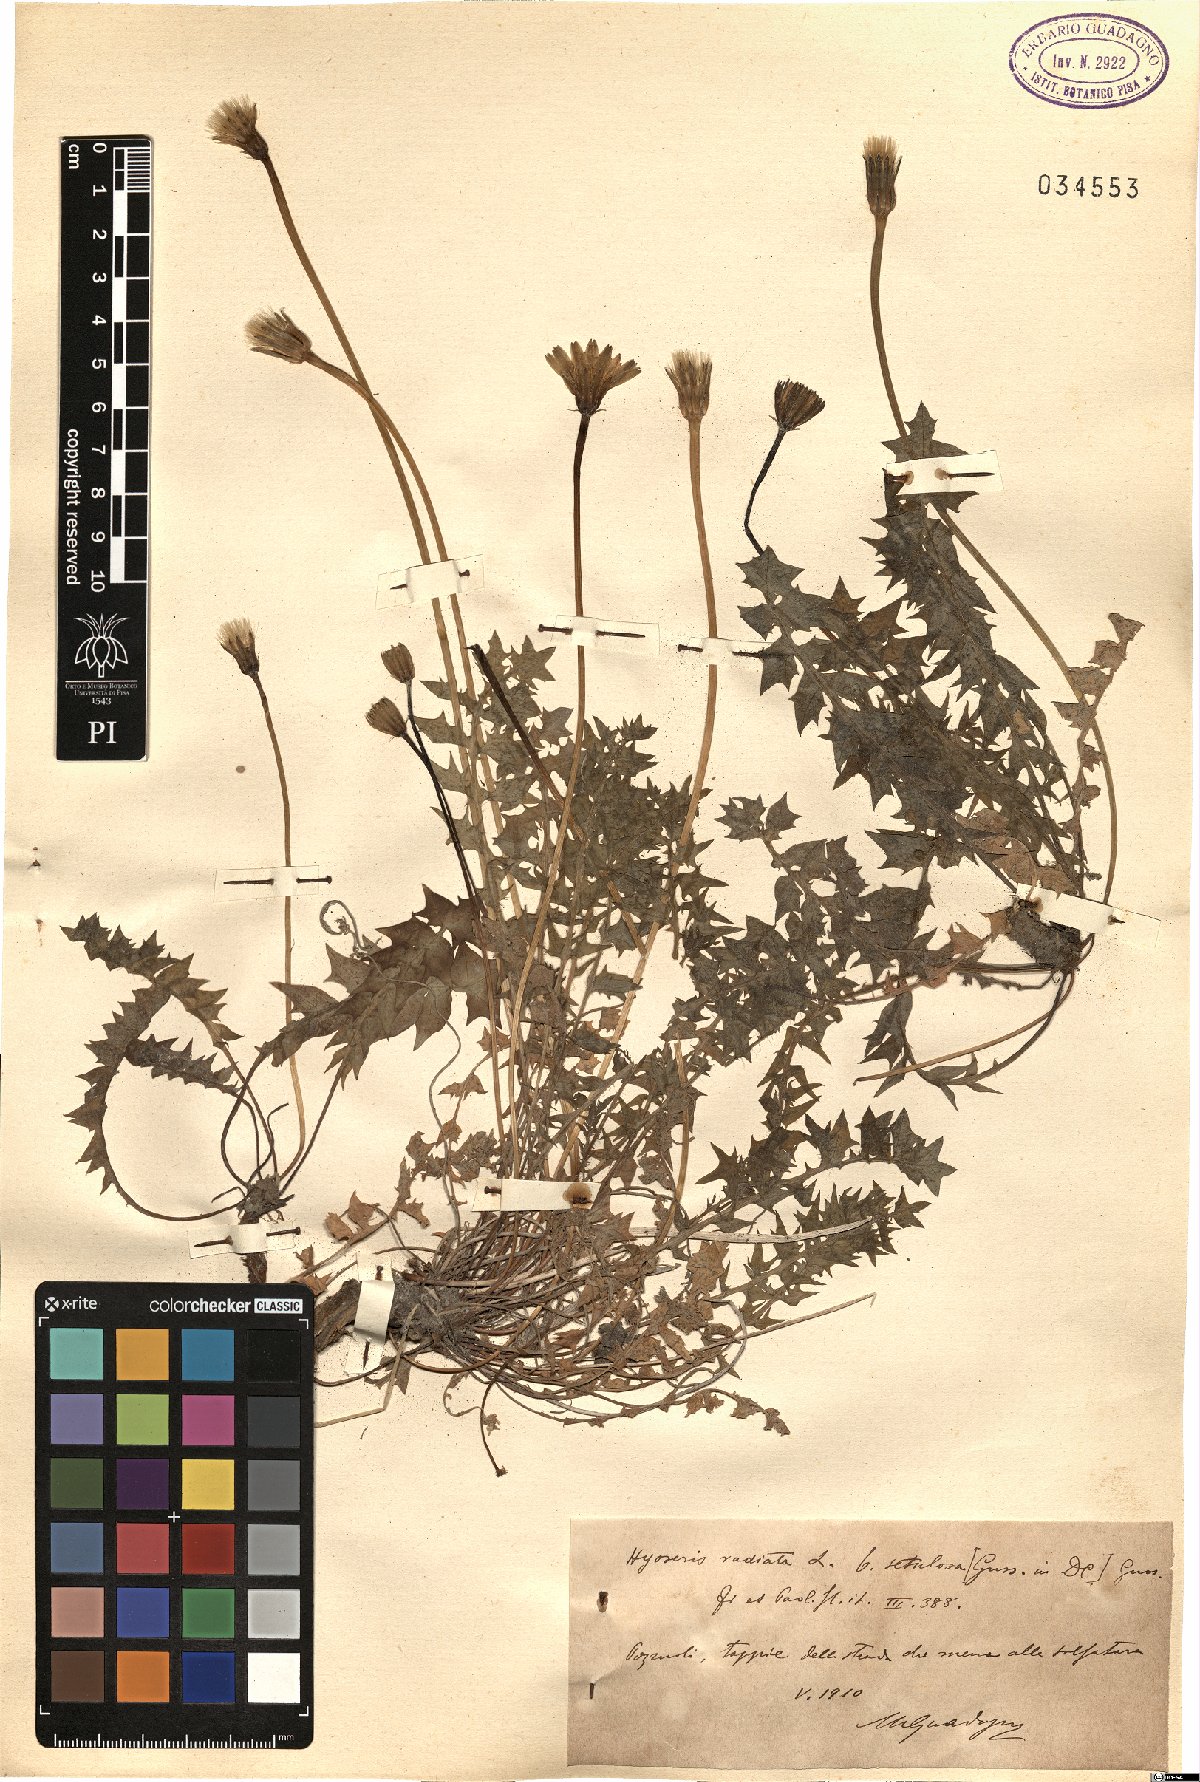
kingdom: Plantae
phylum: Tracheophyta
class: Magnoliopsida
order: Asterales
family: Asteraceae
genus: Hyoseris
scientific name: Hyoseris radiata
